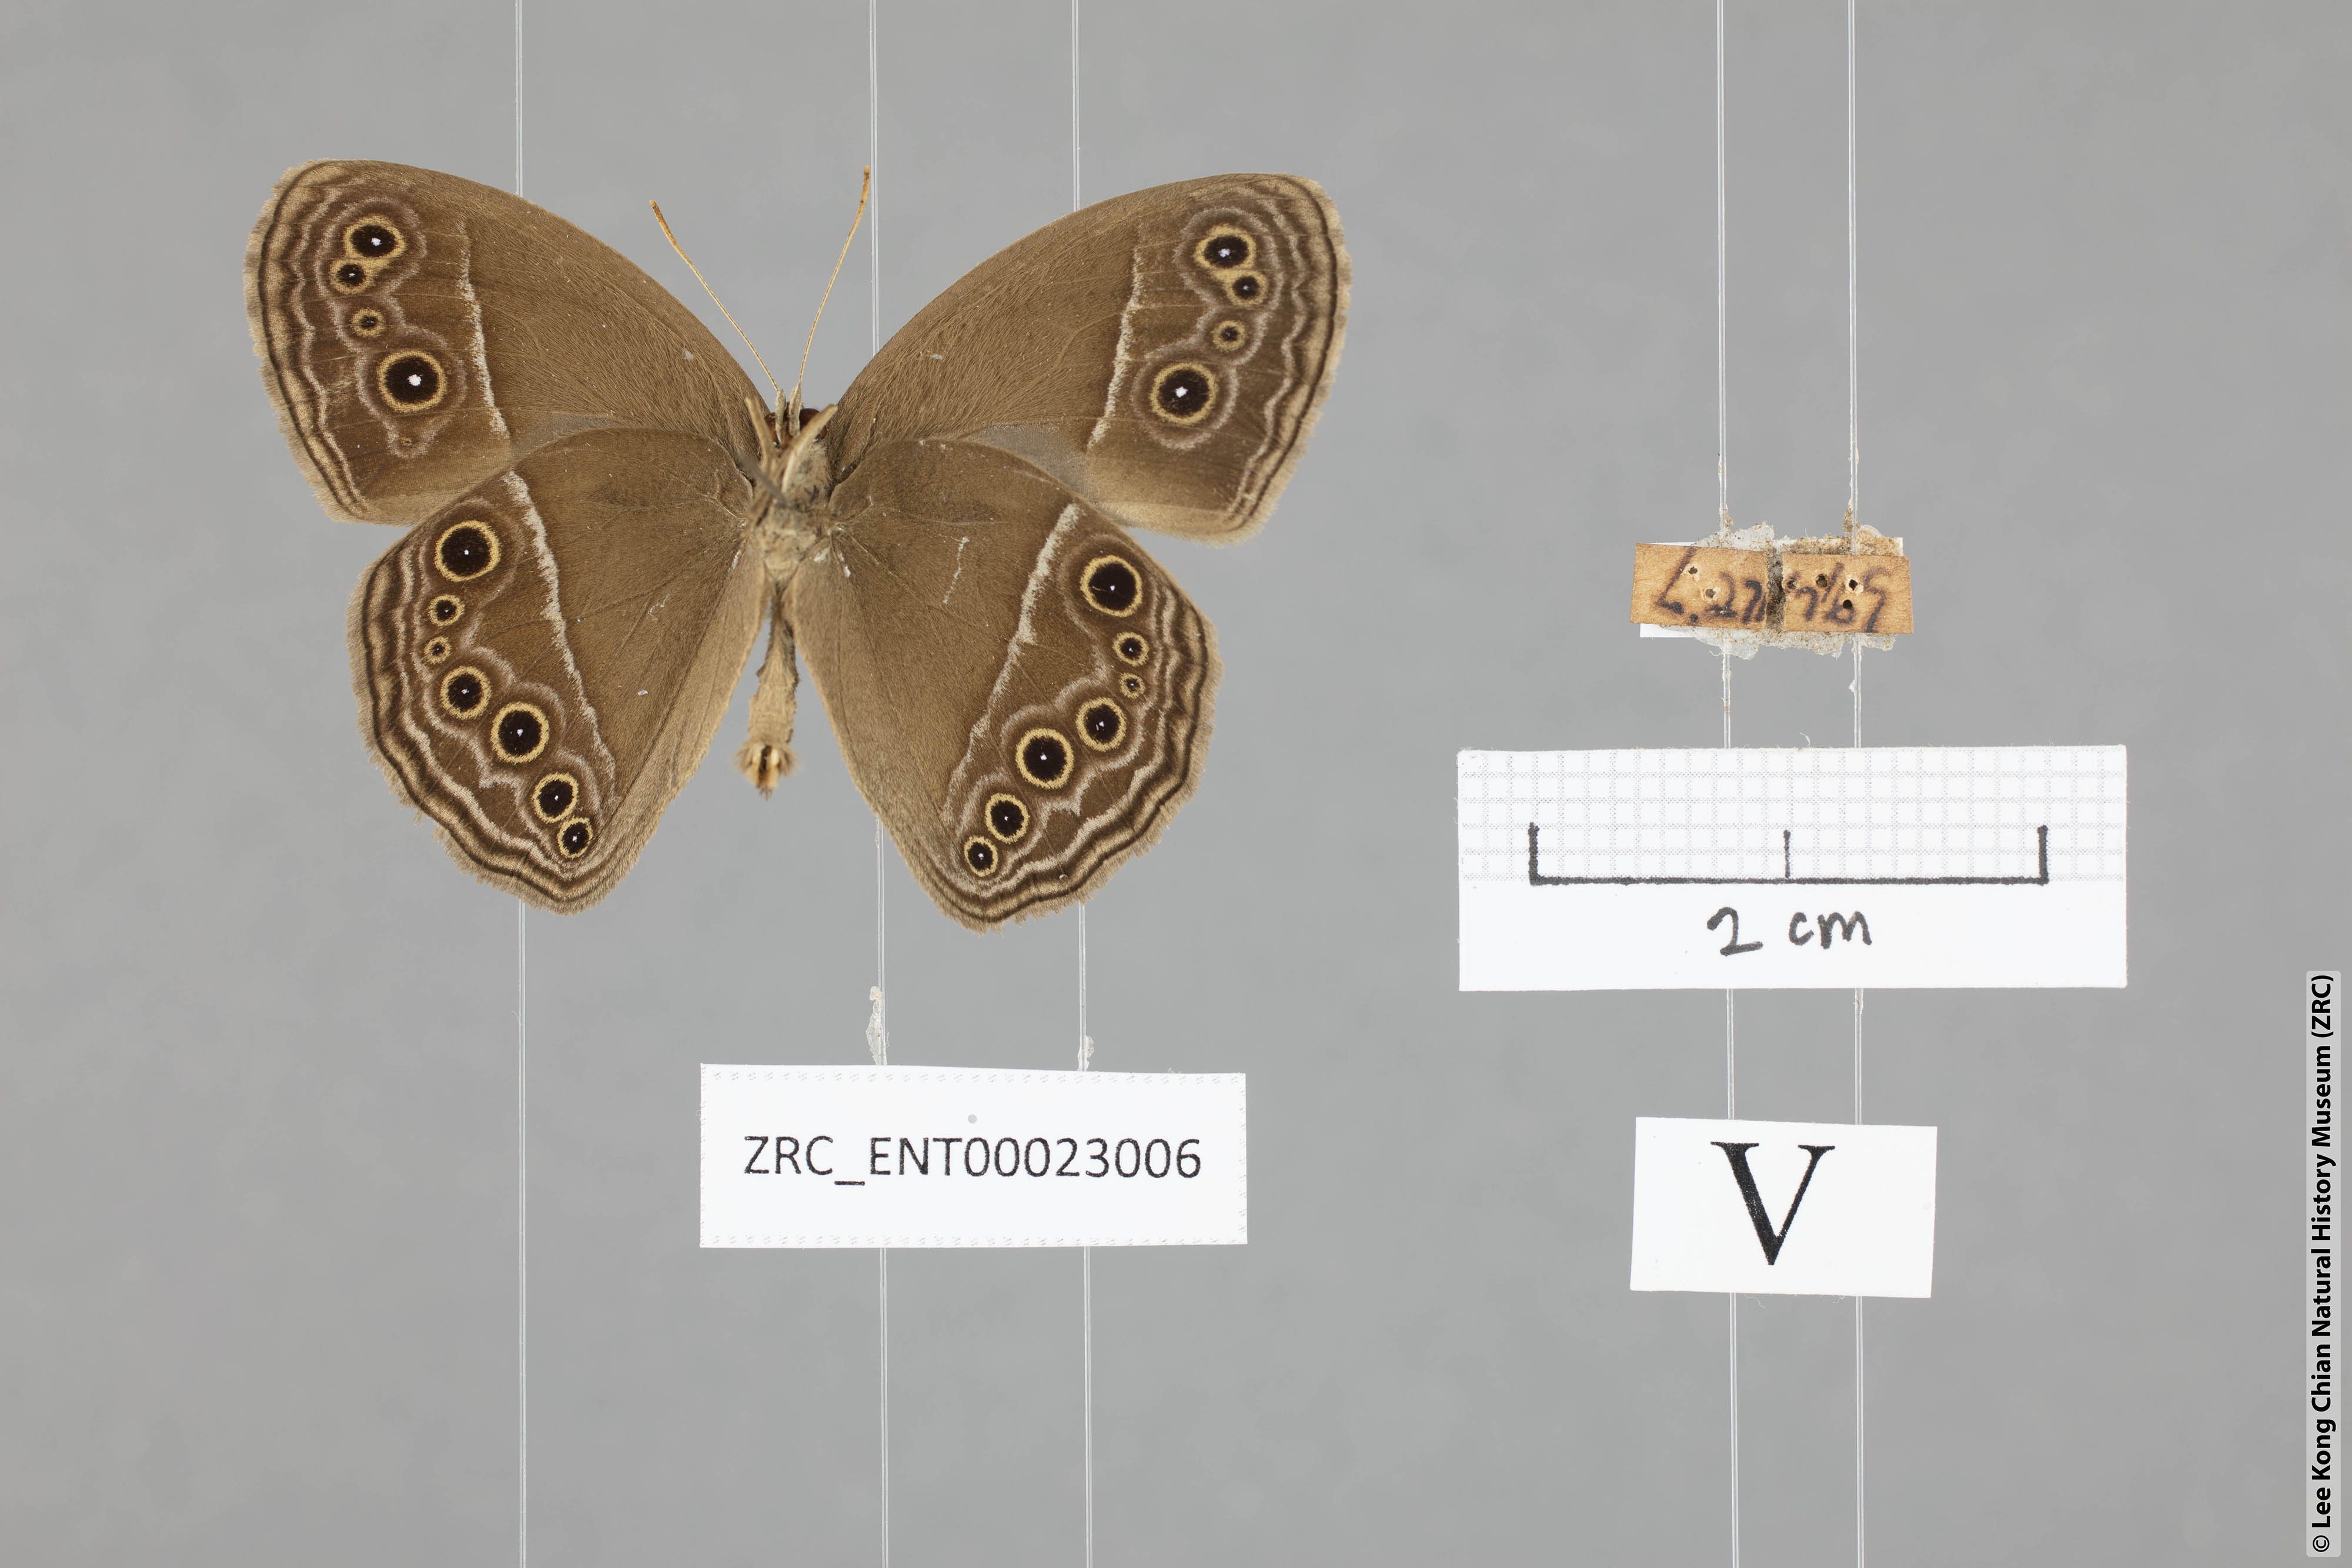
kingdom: Animalia
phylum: Arthropoda
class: Insecta
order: Lepidoptera
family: Nymphalidae
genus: Mycalesis
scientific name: Mycalesis perseus
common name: Dingy bushbrown
